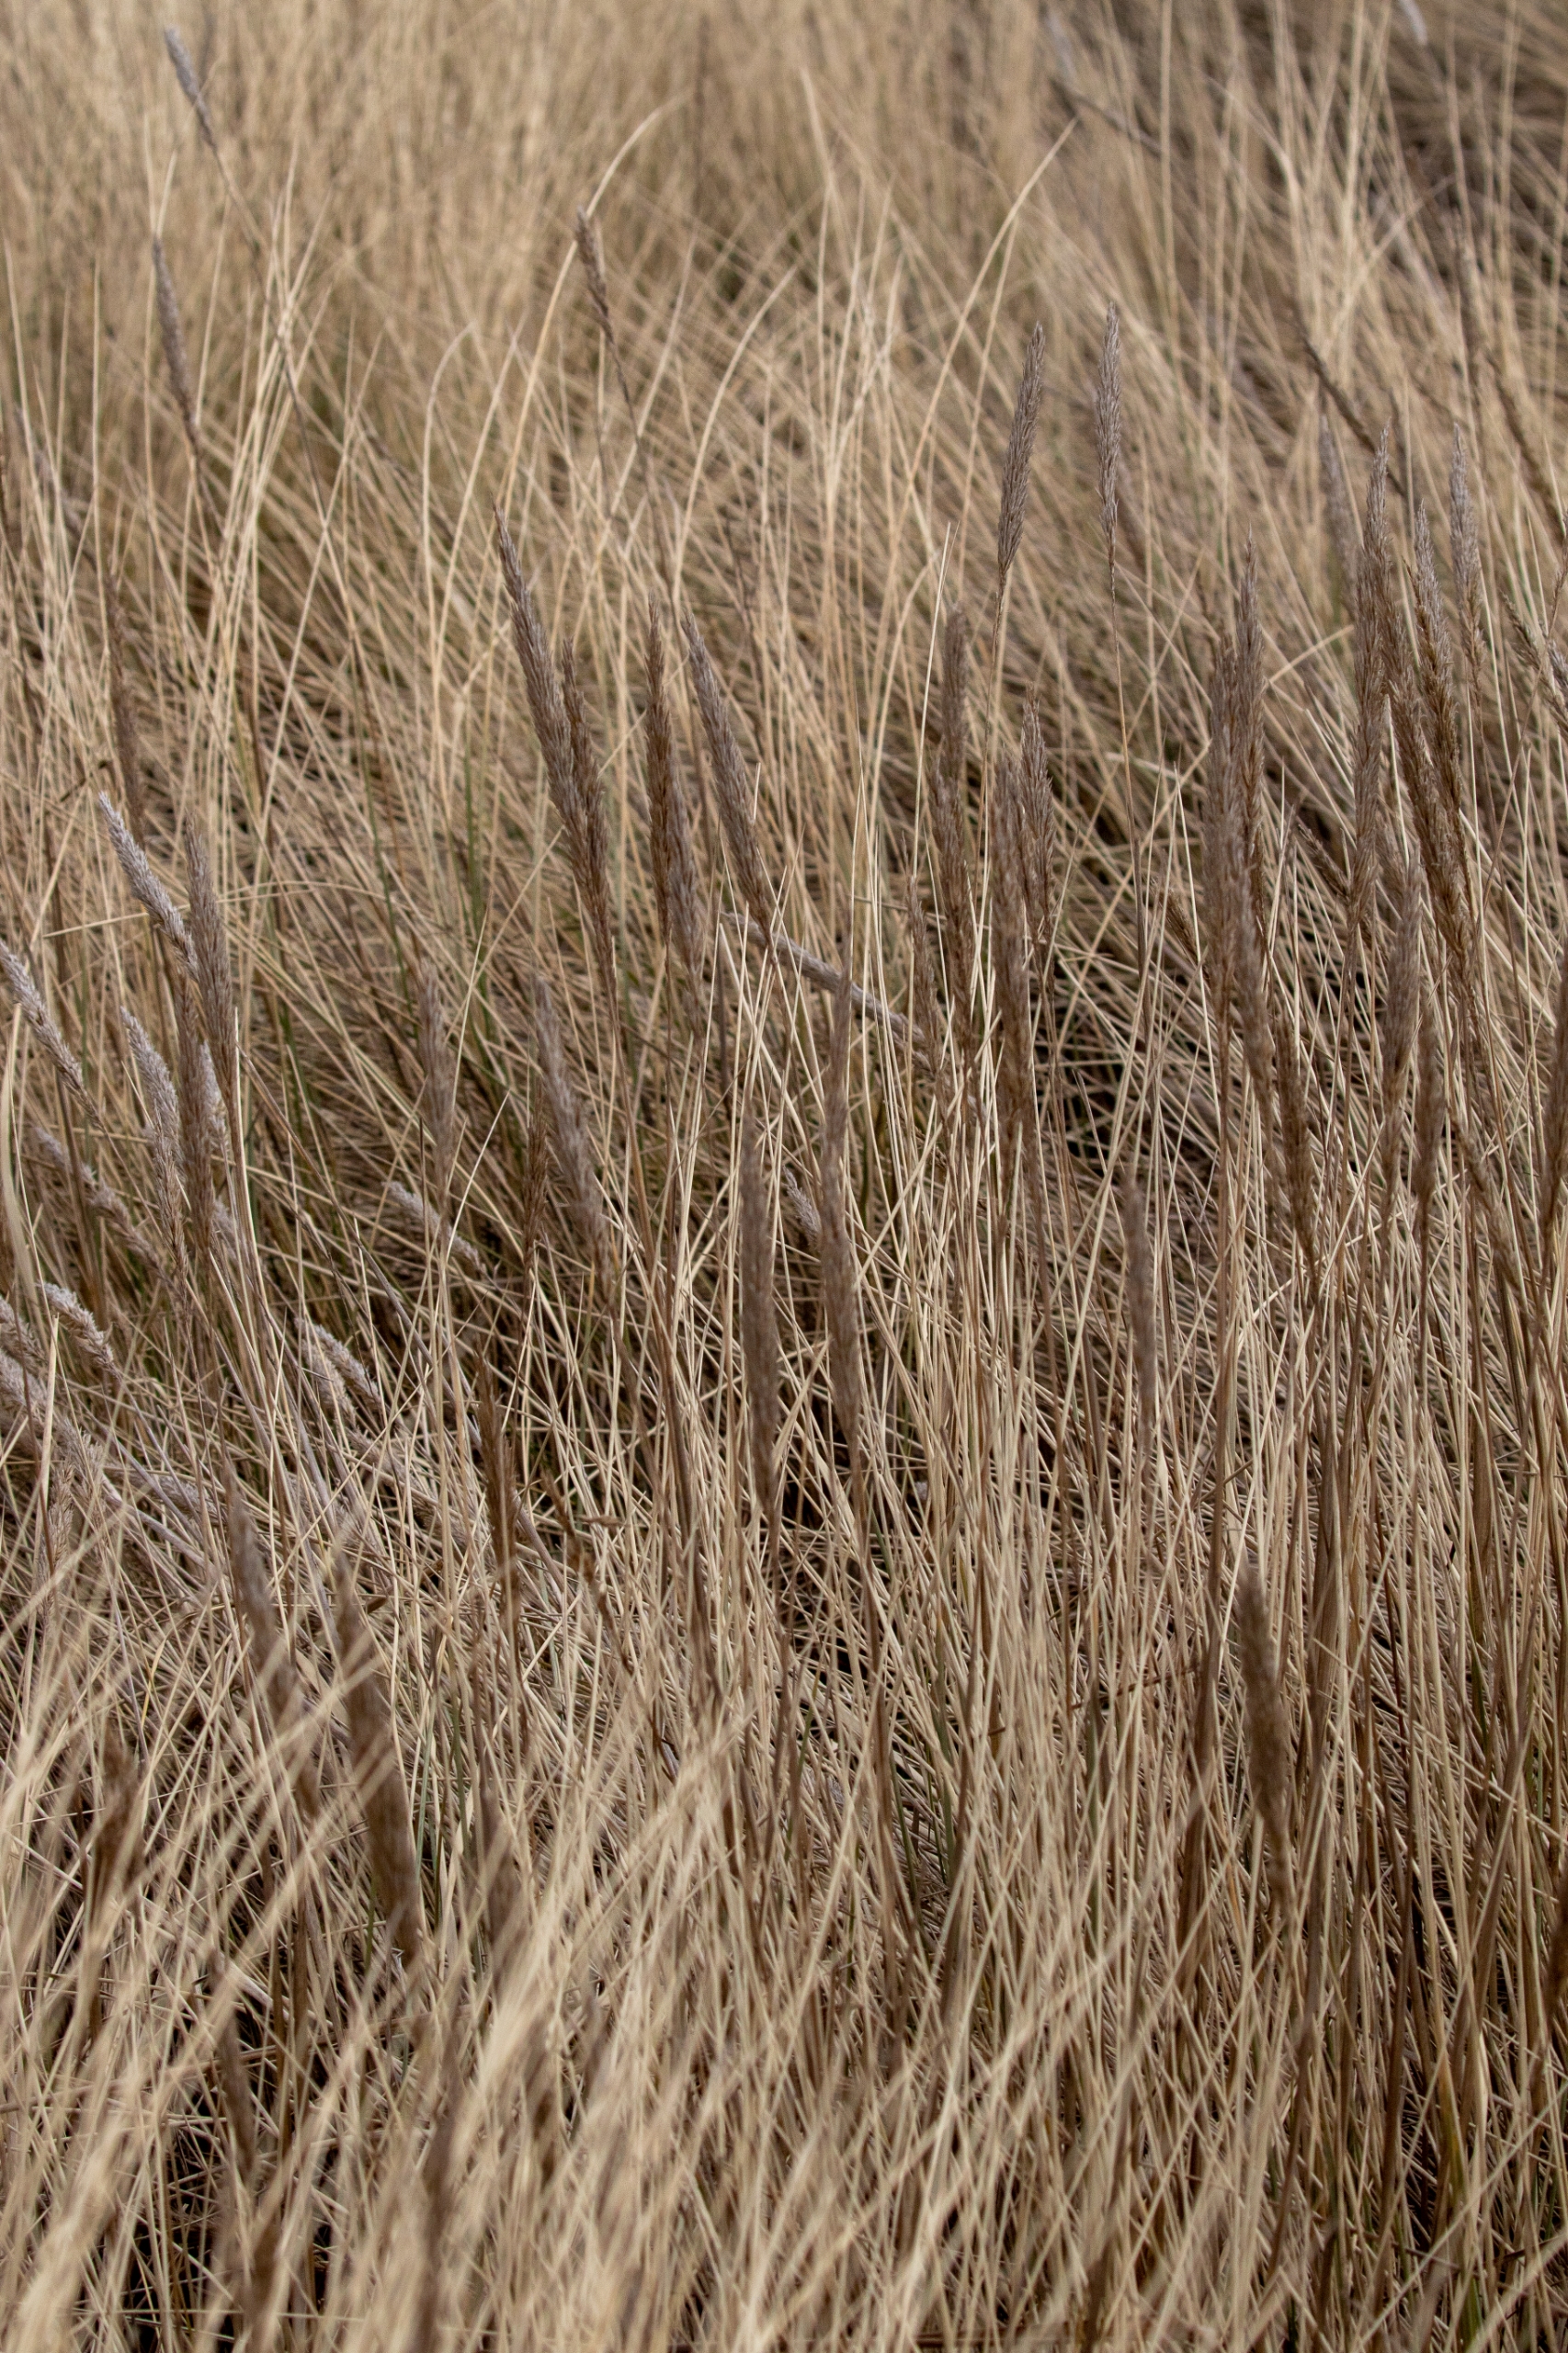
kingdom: Plantae
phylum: Tracheophyta
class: Liliopsida
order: Poales
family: Poaceae
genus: Calamagrostis
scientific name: Calamagrostis arenaria
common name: Sand-hjælme
